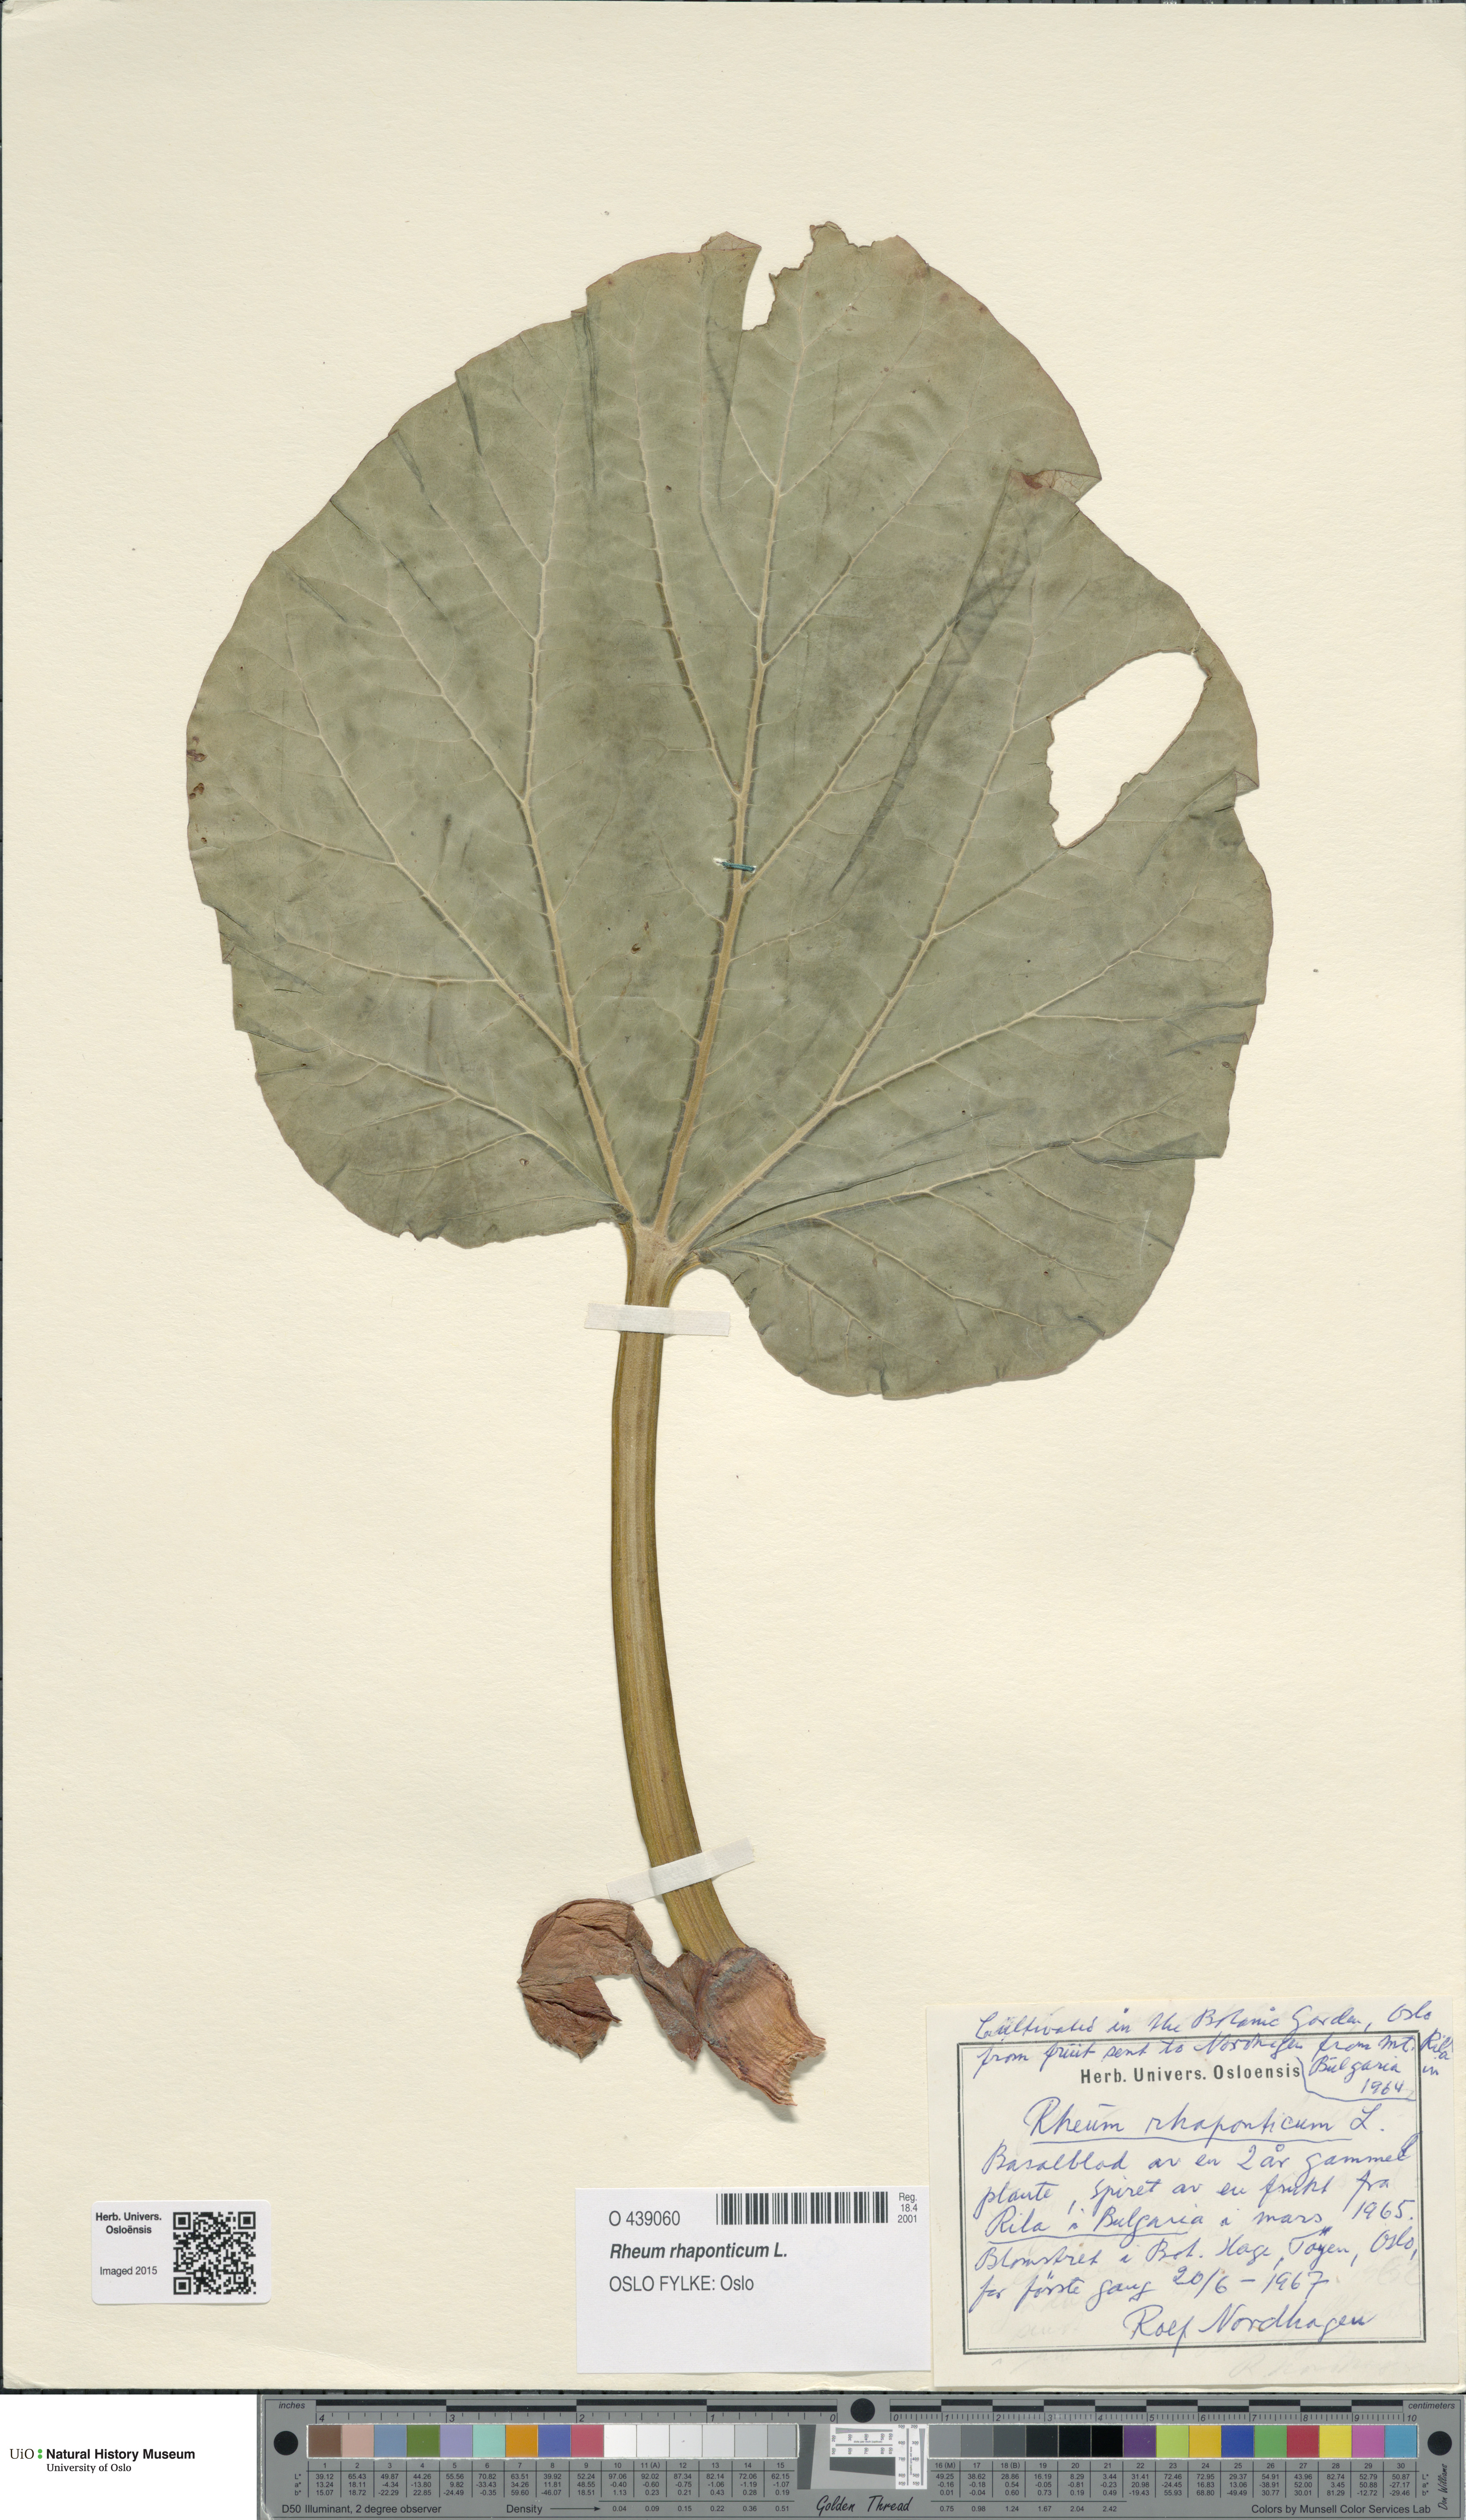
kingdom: Plantae
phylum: Tracheophyta
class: Magnoliopsida
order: Caryophyllales
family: Polygonaceae
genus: Rheum
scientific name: Rheum rhaponticum
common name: Rhubarb
